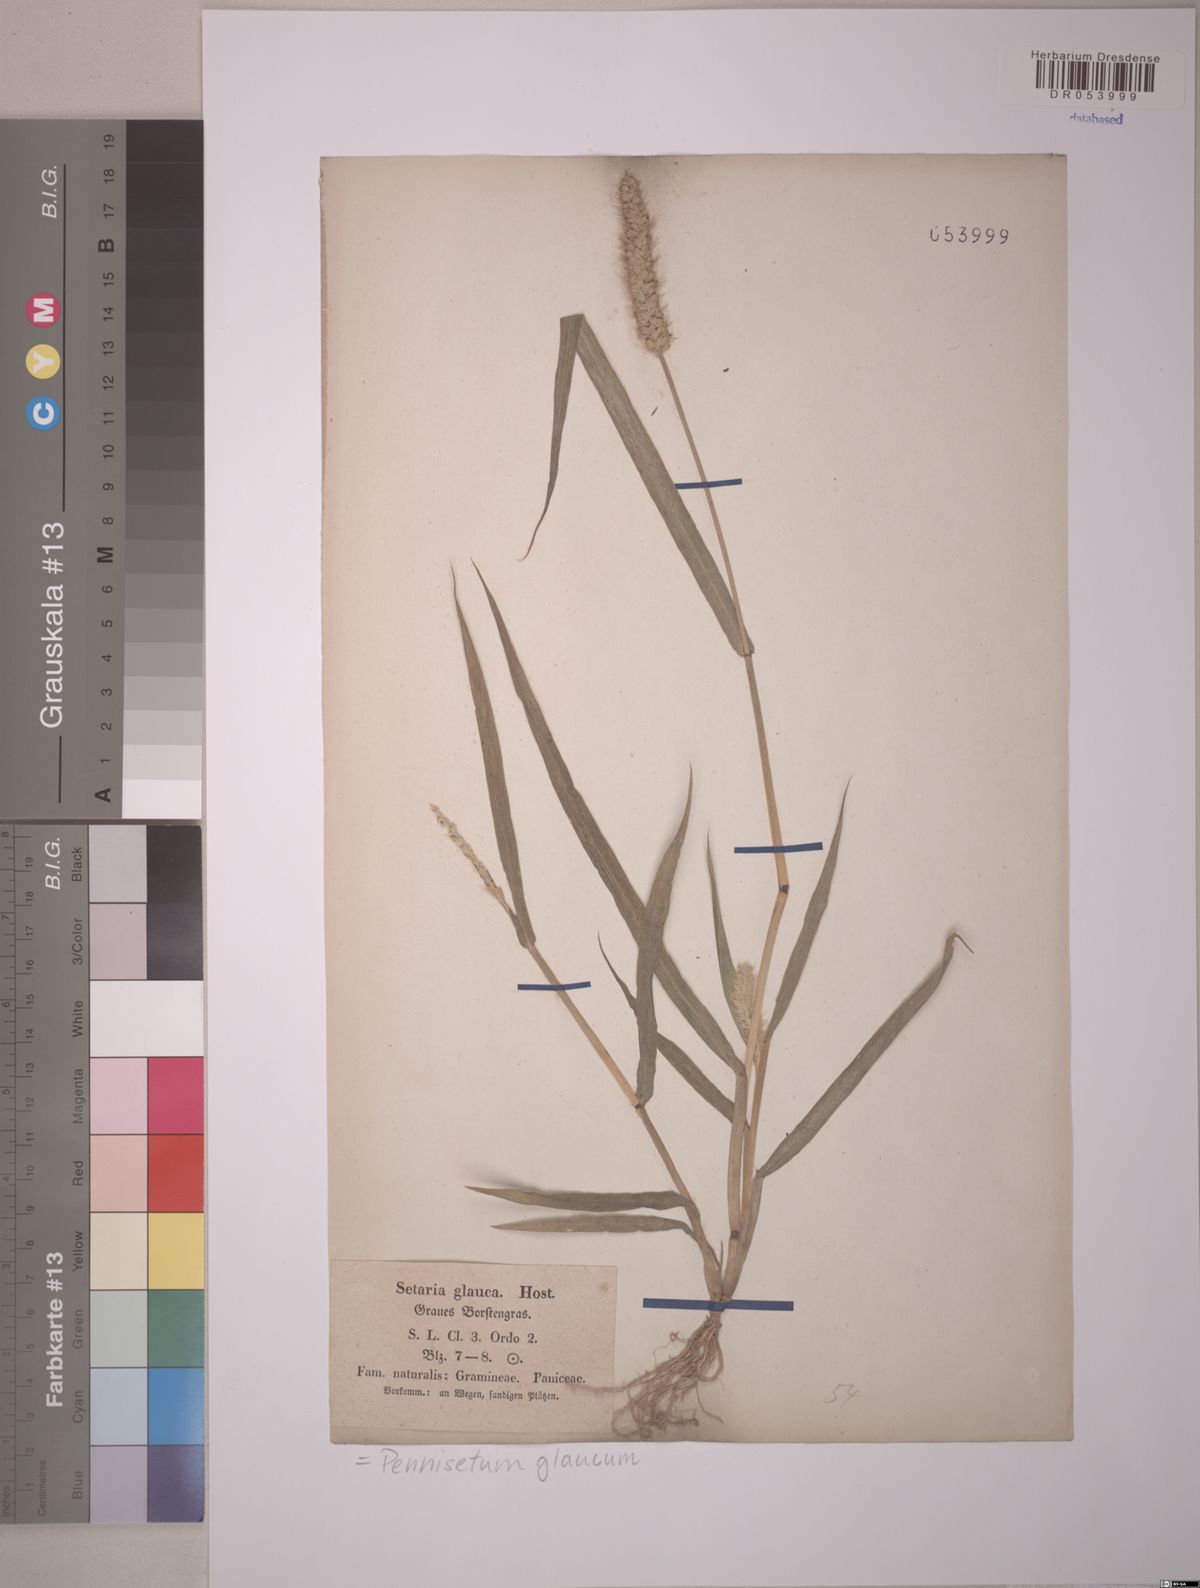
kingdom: Plantae
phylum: Tracheophyta
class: Liliopsida
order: Poales
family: Poaceae
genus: Cenchrus
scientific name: Cenchrus americanus
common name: Pearl millet
